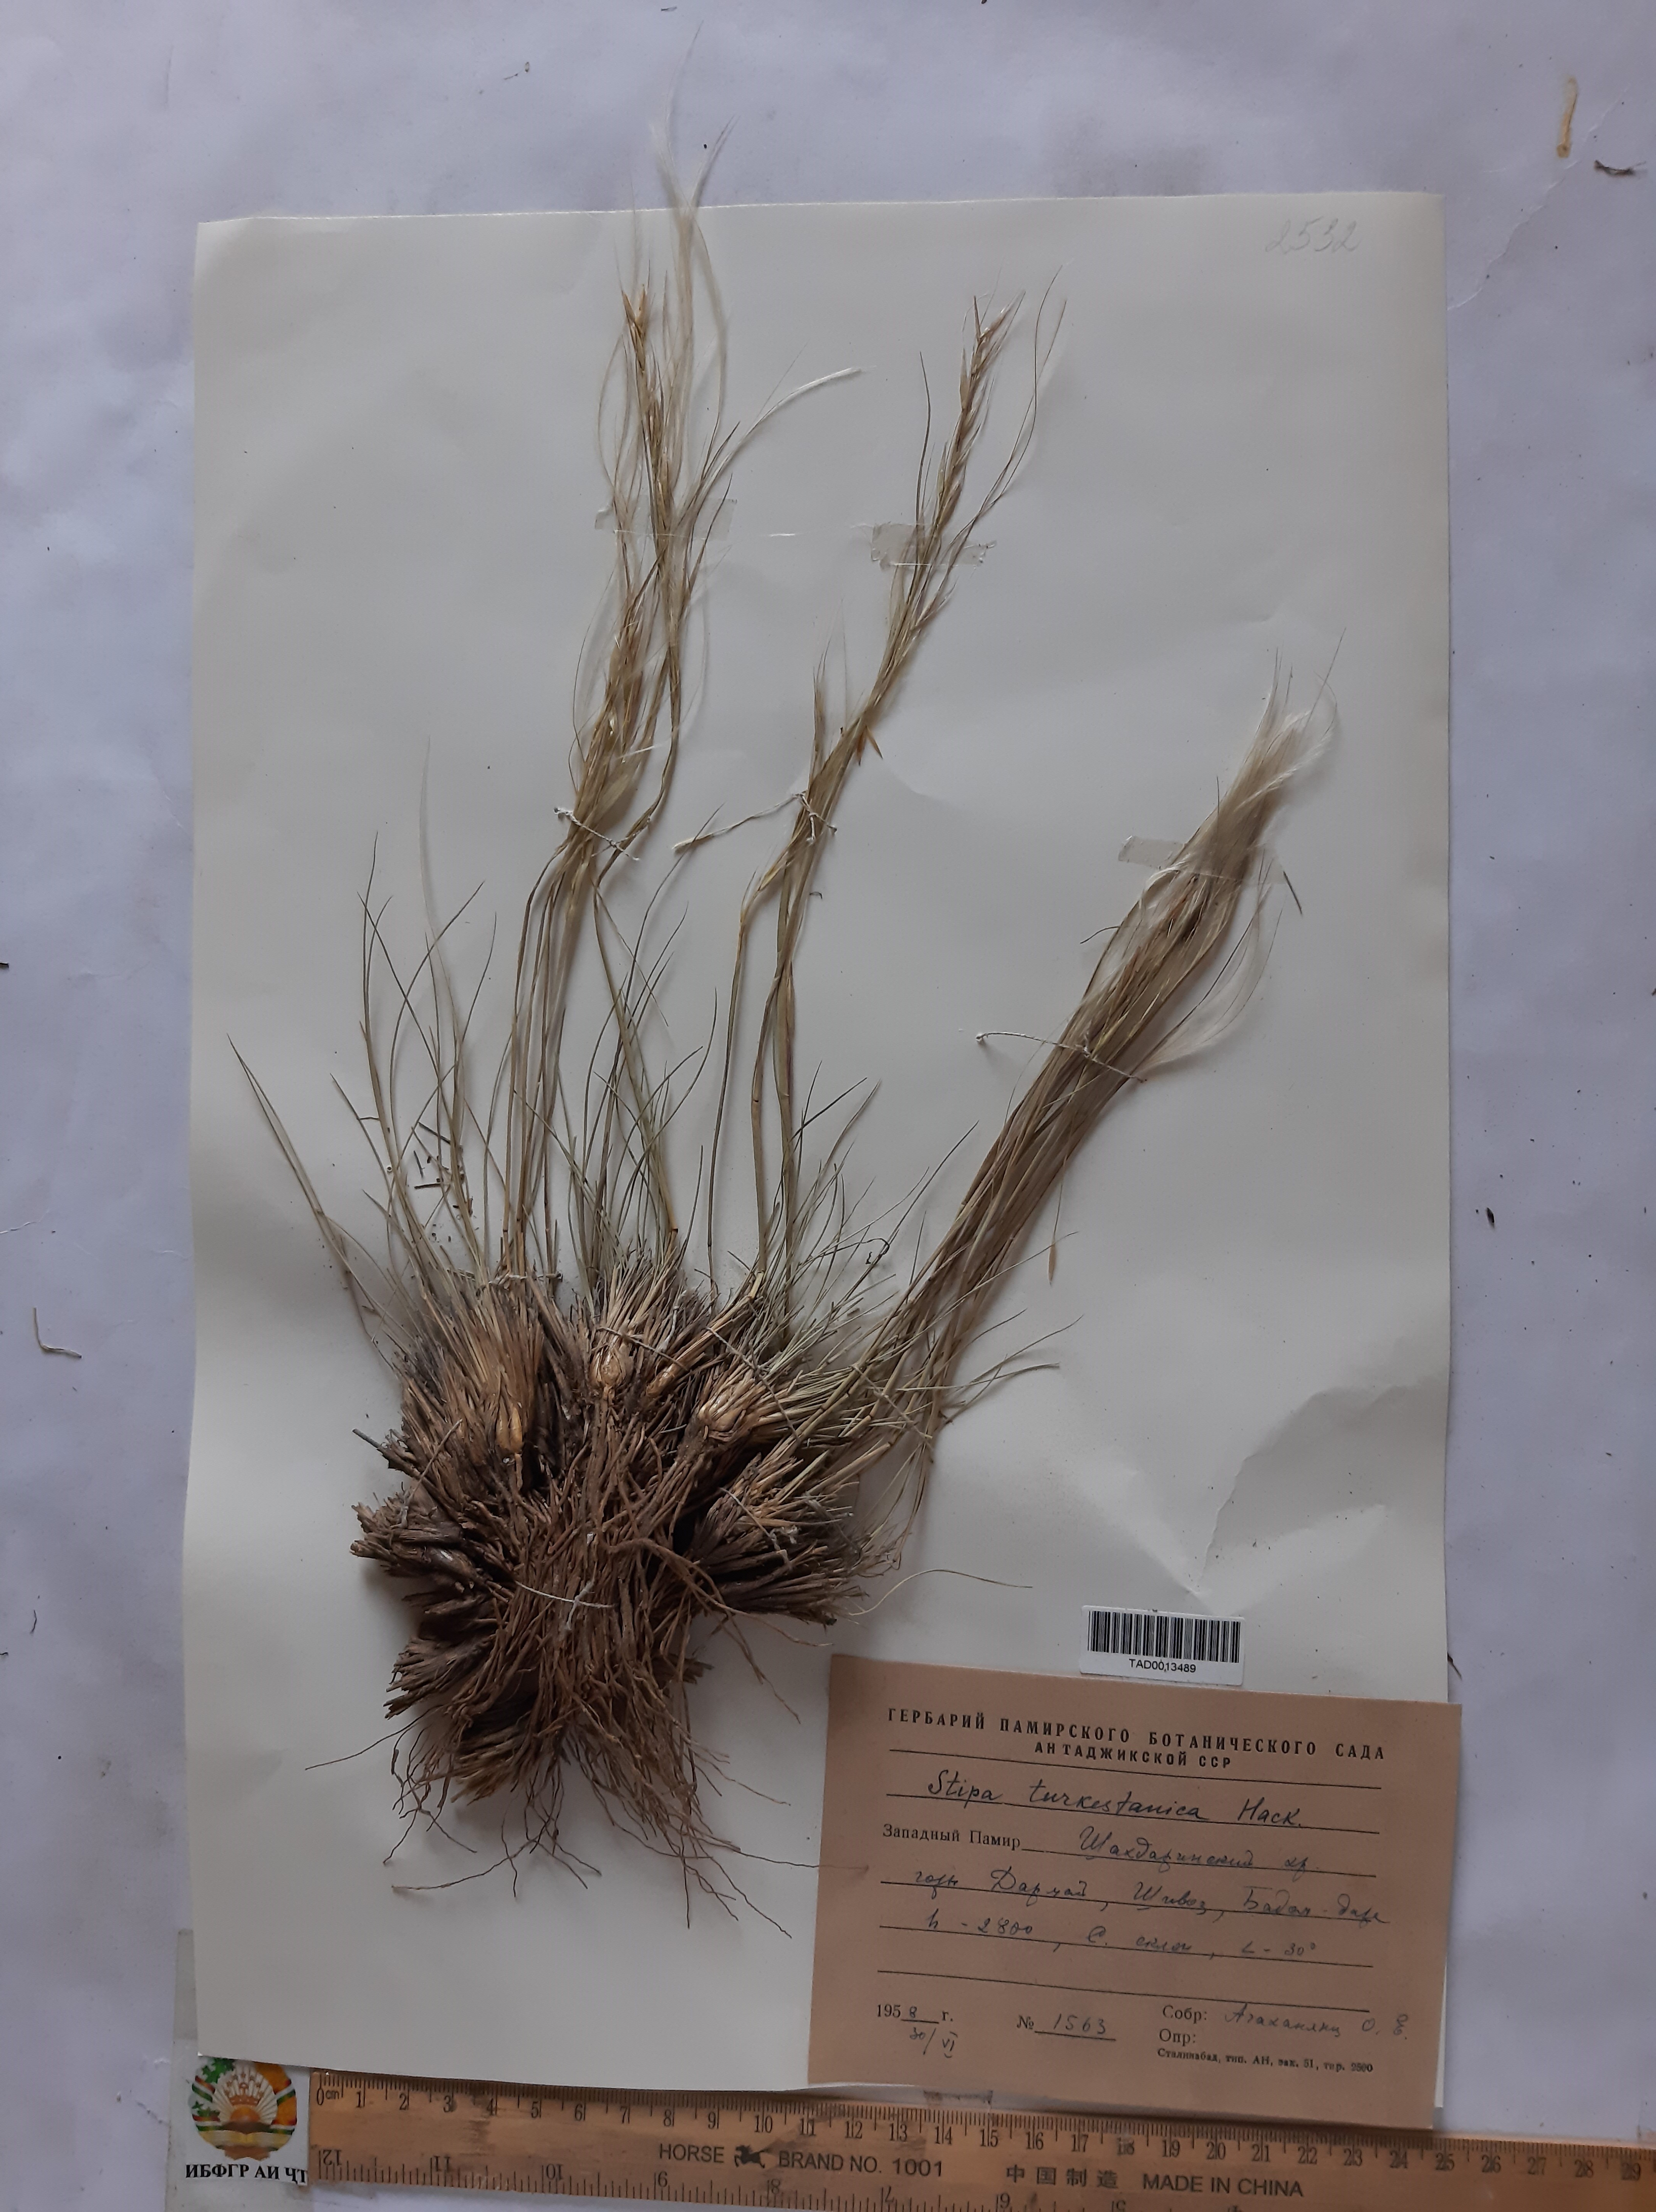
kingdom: Plantae
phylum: Tracheophyta
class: Liliopsida
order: Poales
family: Poaceae
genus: Stipa
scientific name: Stipa turkestanica
